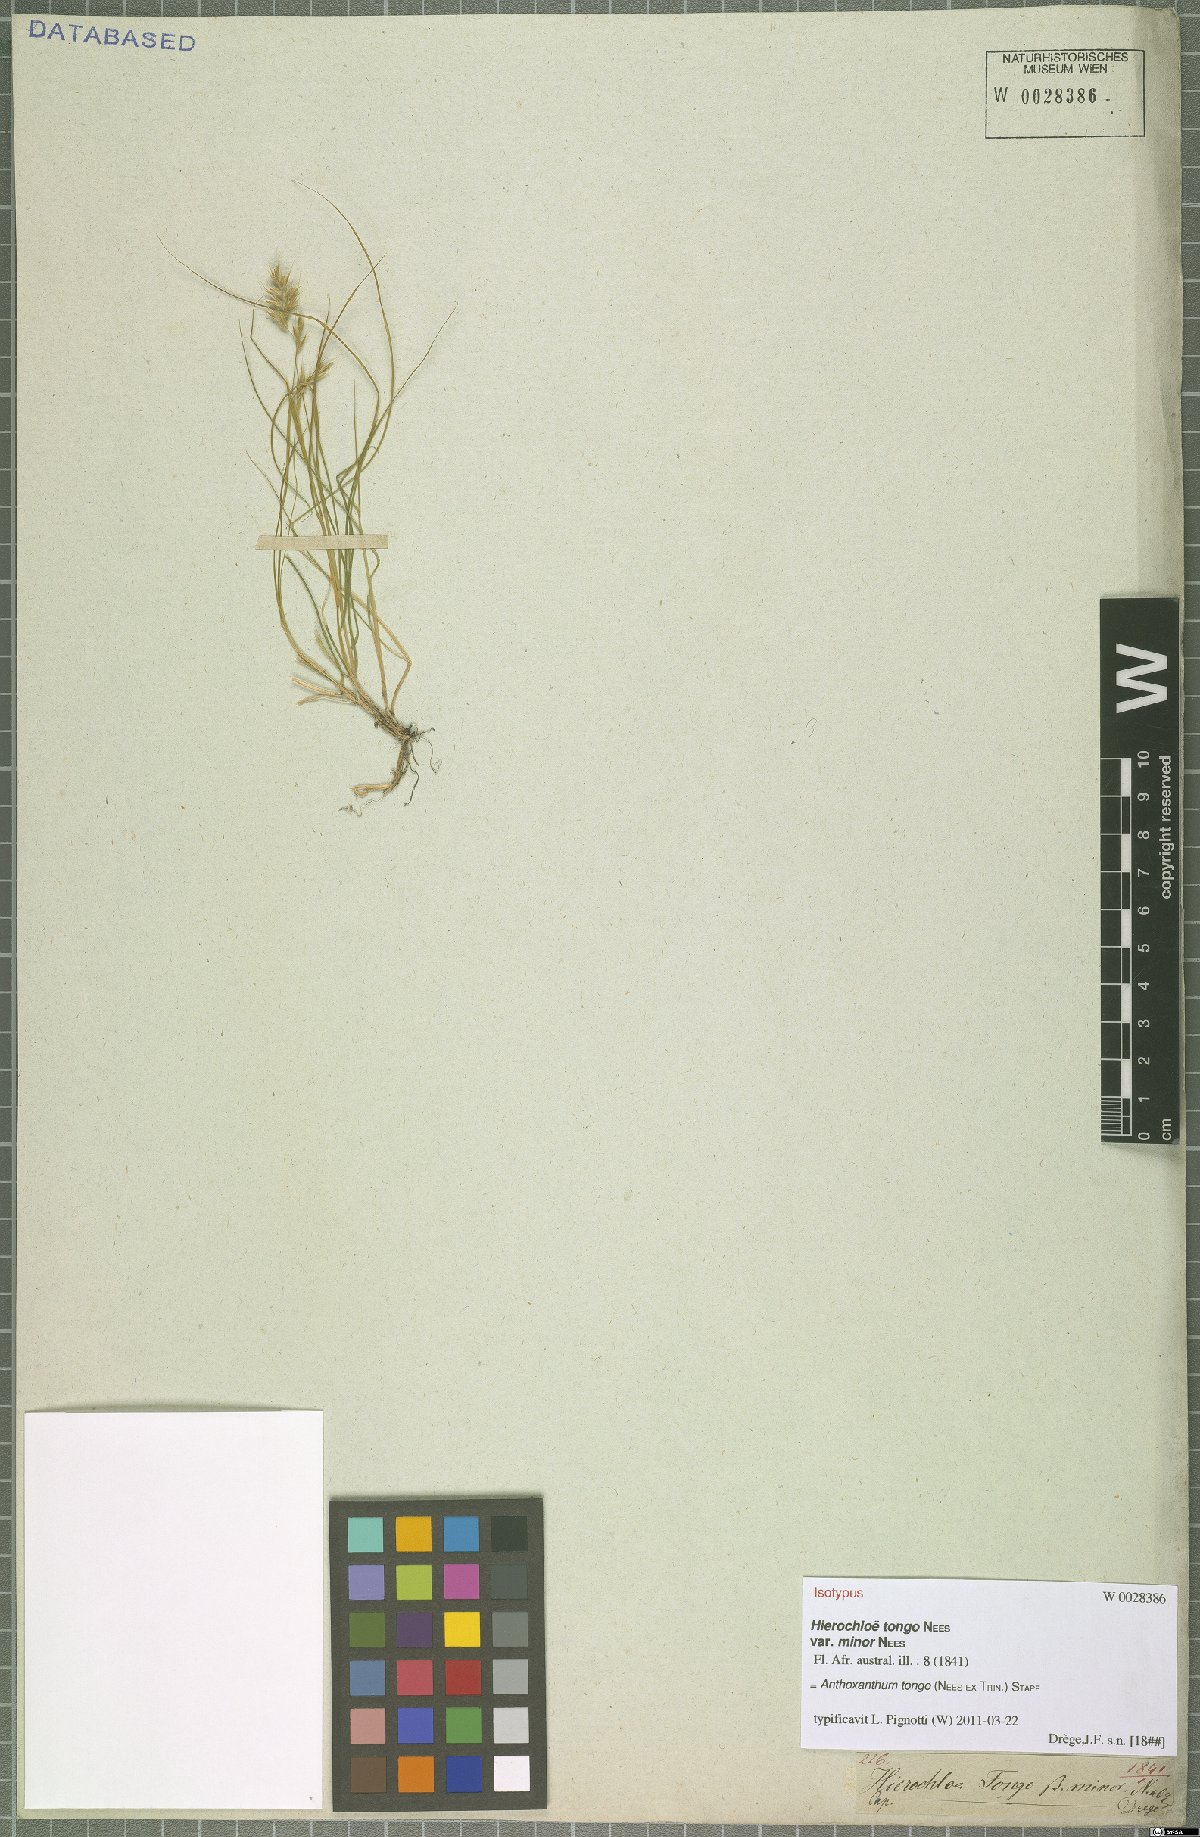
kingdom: Plantae
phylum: Tracheophyta
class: Liliopsida
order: Poales
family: Poaceae
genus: Anthoxanthum
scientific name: Anthoxanthum tongo
